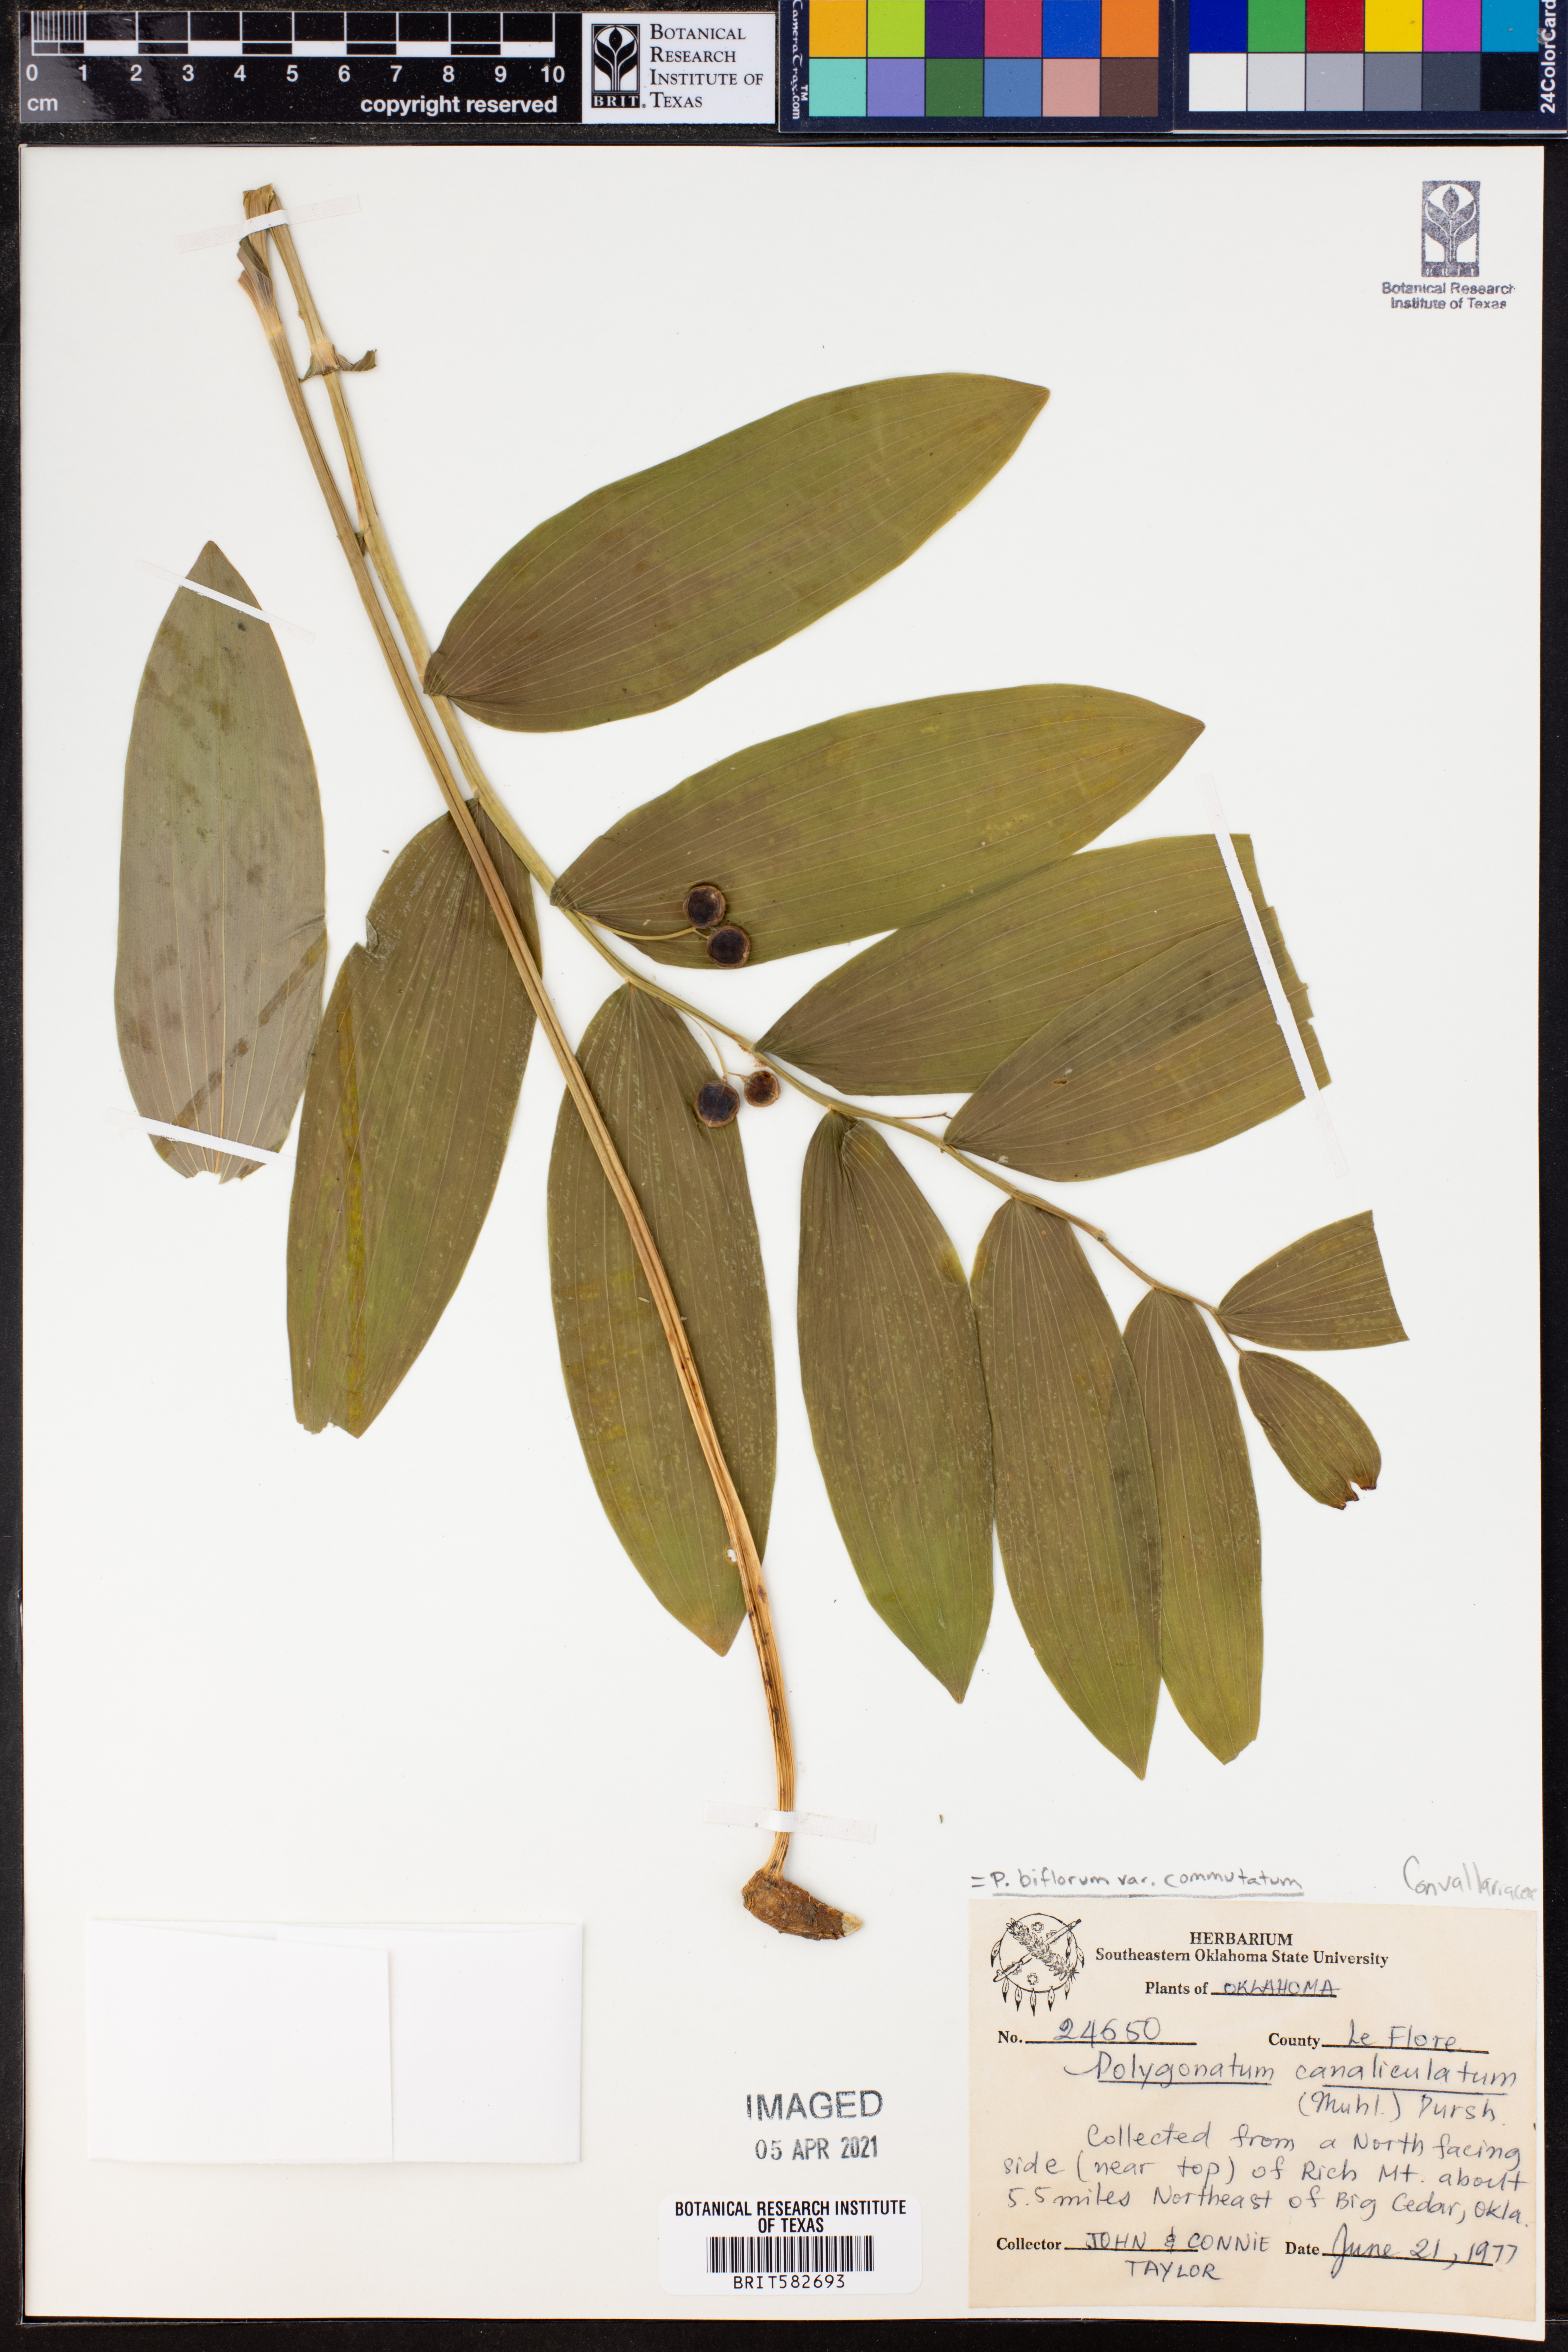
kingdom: Plantae
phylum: Tracheophyta
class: Liliopsida
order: Asparagales
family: Asparagaceae
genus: Polygonatum
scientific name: Polygonatum biflorum
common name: American solomon's-seal
